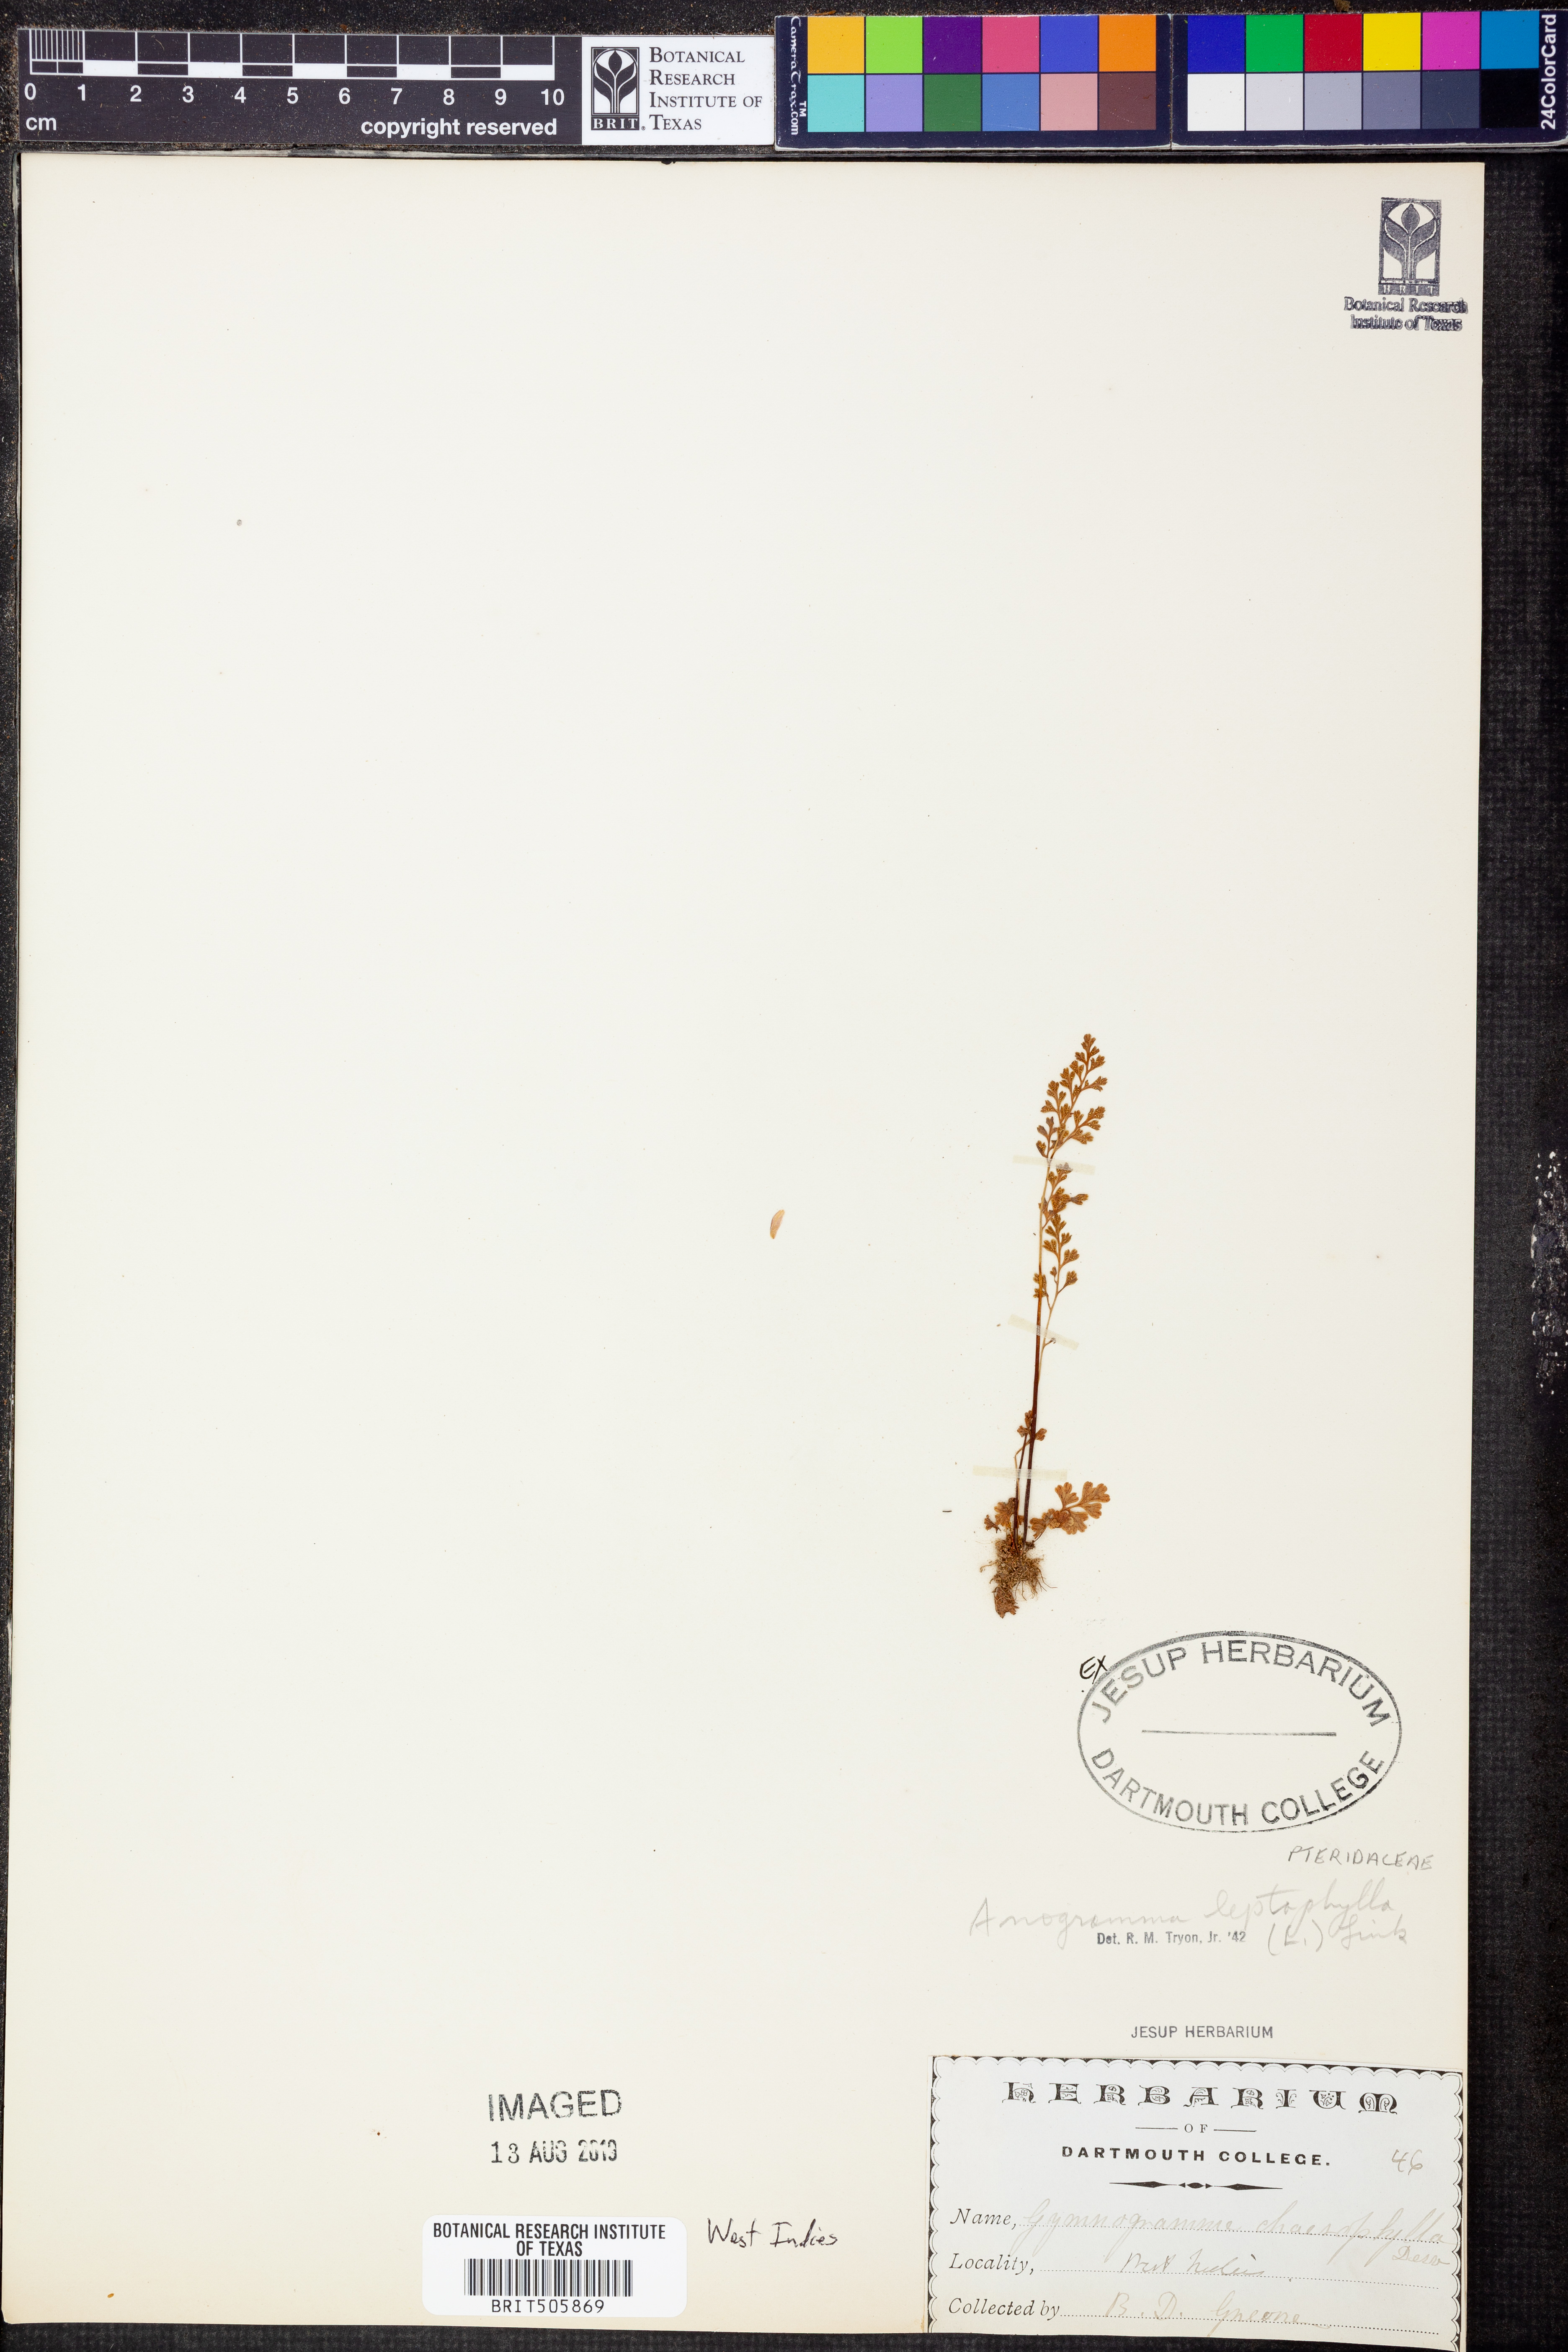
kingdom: Plantae
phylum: Tracheophyta
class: Polypodiopsida
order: Polypodiales
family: Pteridaceae
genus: Anogramma
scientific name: Anogramma leptophylla
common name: Jersey fern
